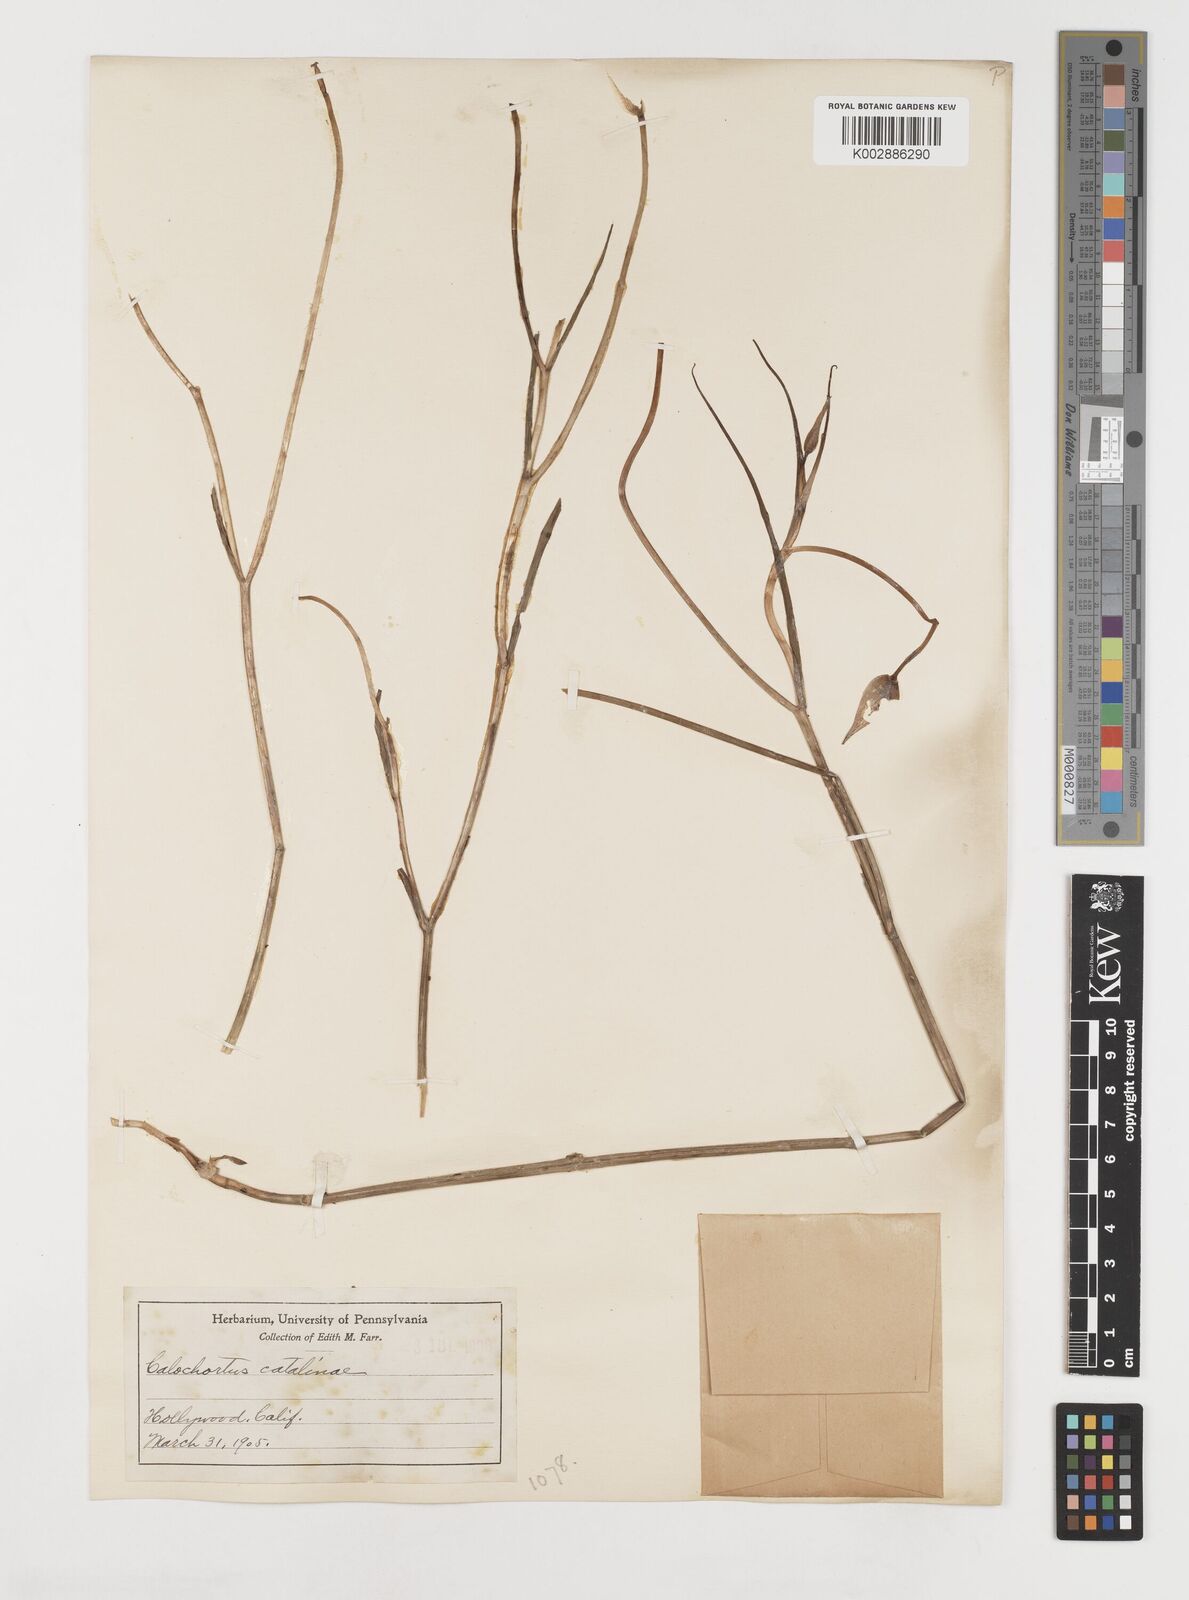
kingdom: Plantae
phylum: Tracheophyta
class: Liliopsida
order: Liliales
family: Liliaceae
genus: Calochortus
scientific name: Calochortus catalinae
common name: Catalina mariposa-lily
